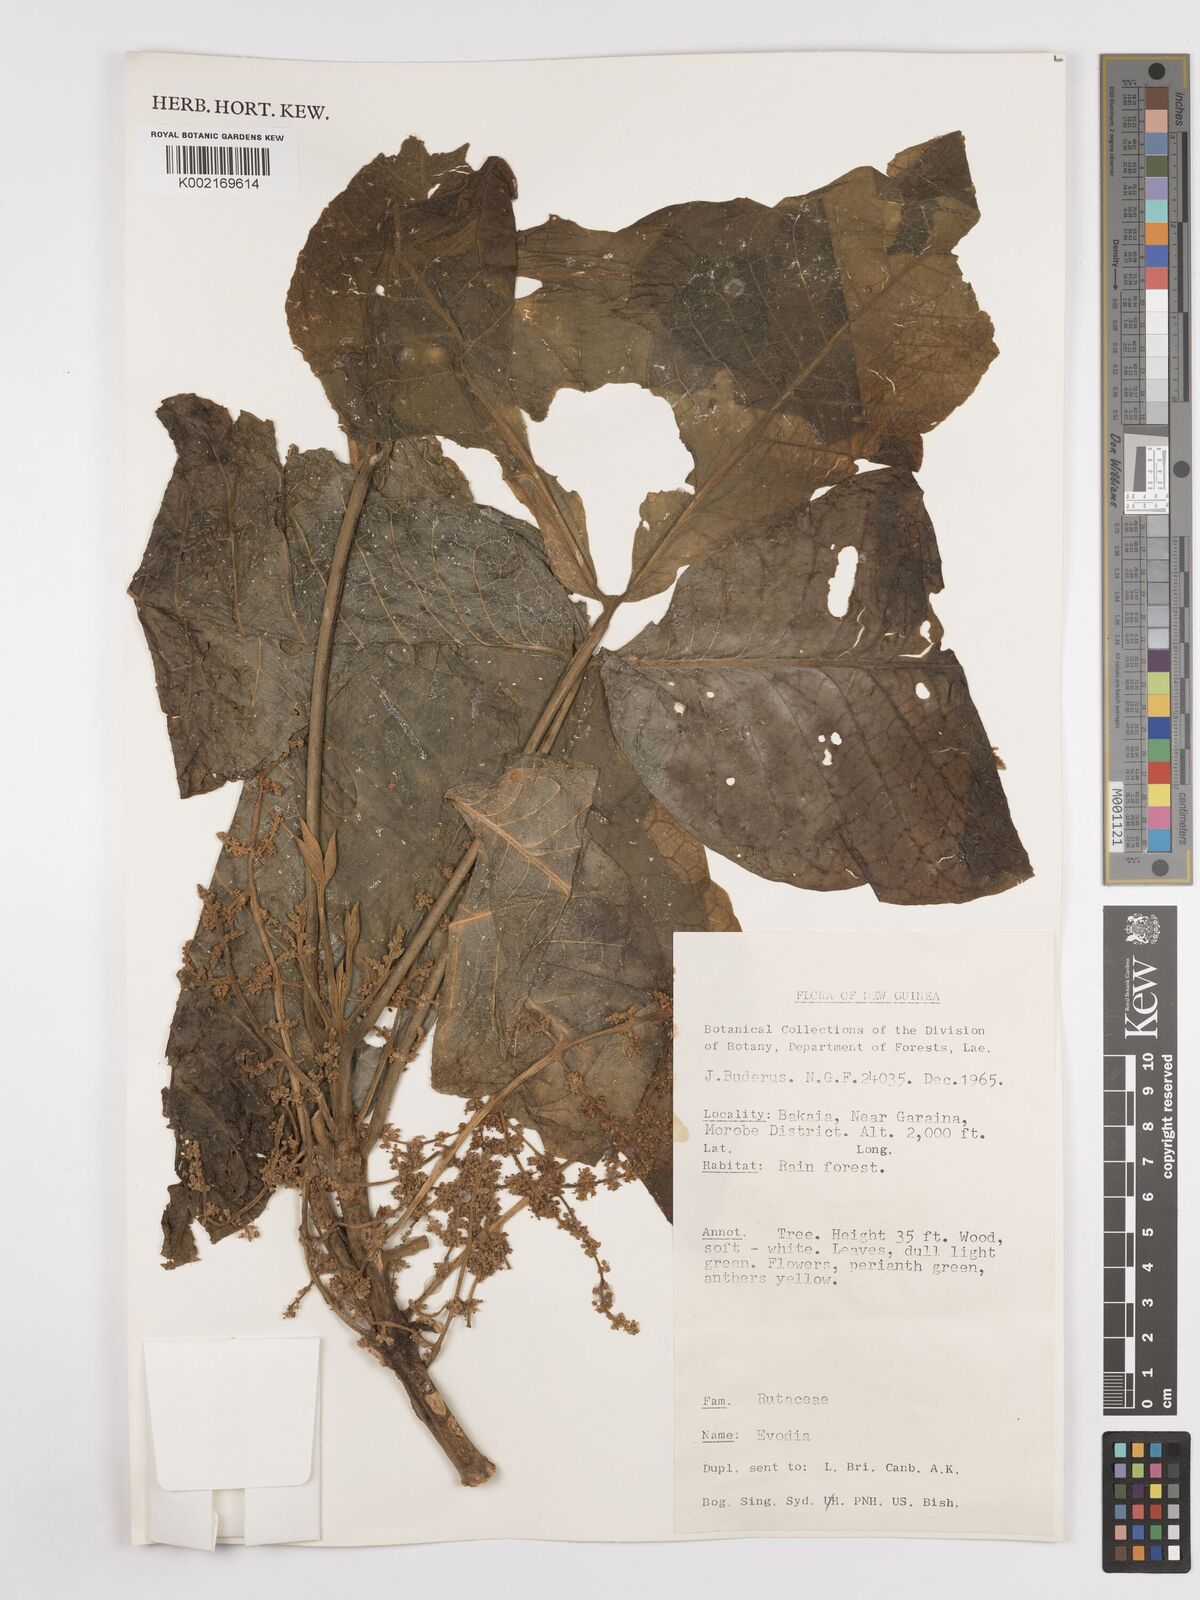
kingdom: Plantae
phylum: Tracheophyta
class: Magnoliopsida
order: Sapindales
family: Rutaceae
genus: Euodia
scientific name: Euodia
